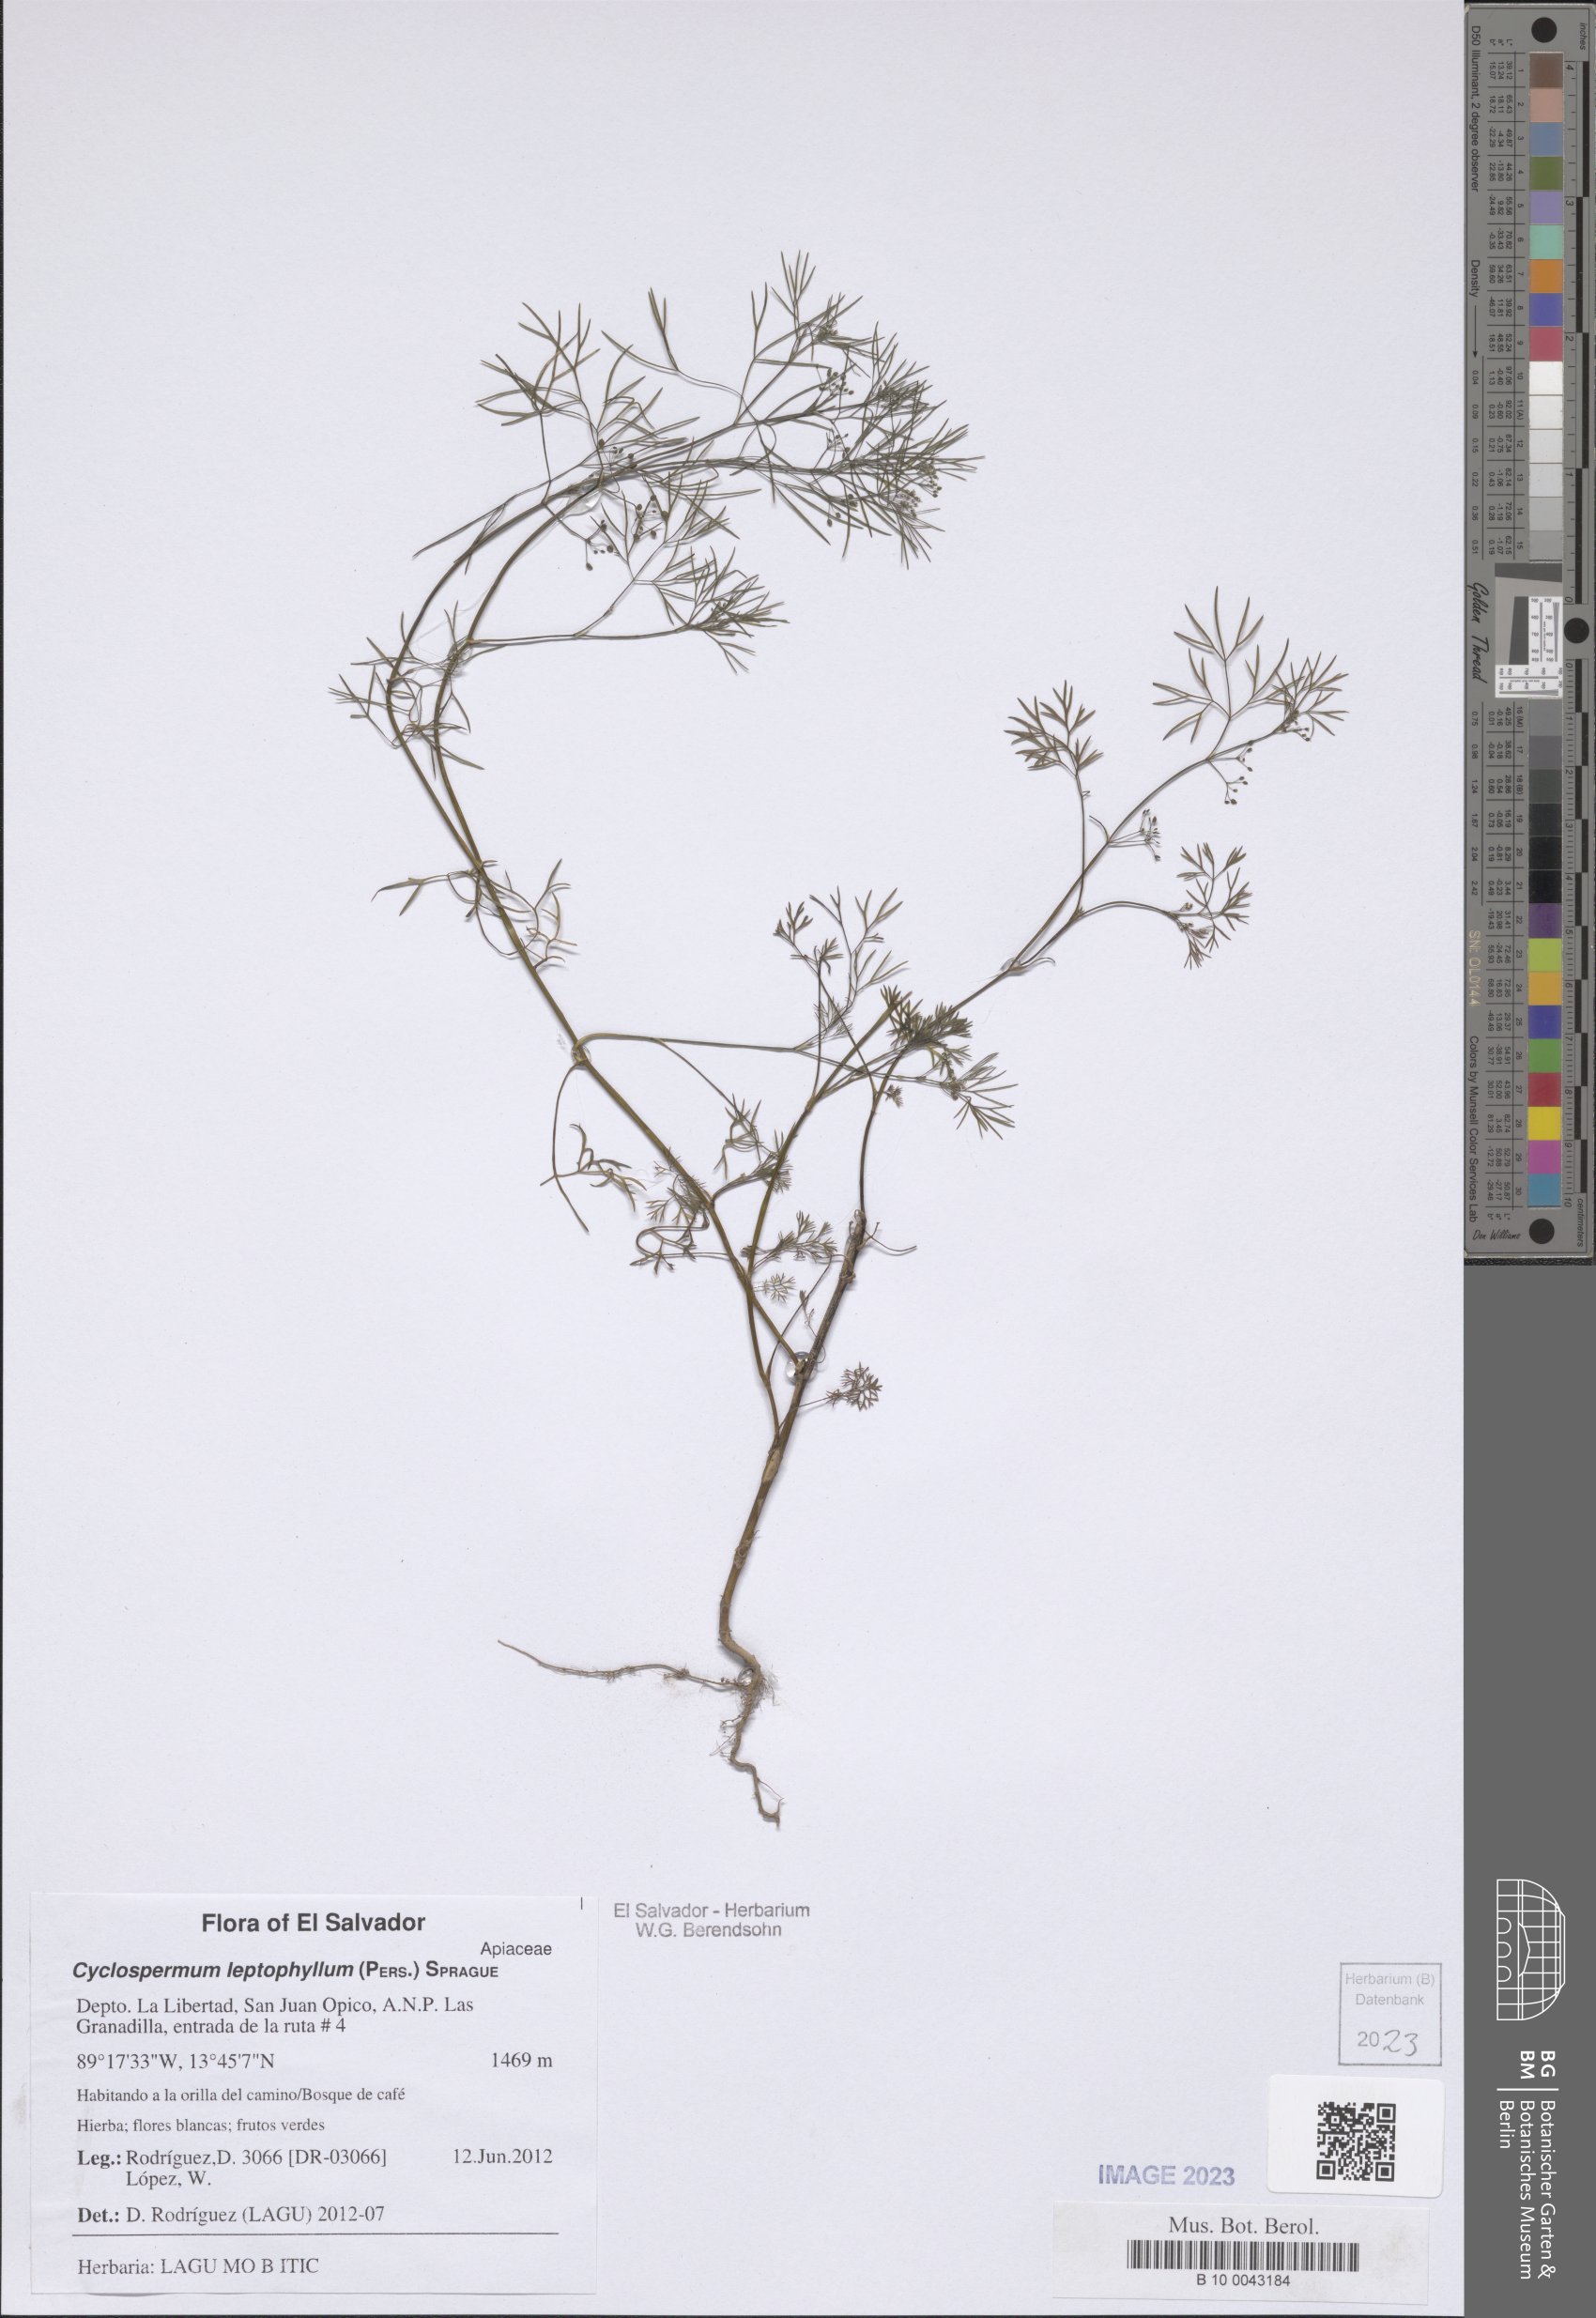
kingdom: Plantae
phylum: Tracheophyta
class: Magnoliopsida
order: Apiales
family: Apiaceae
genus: Cyclospermum
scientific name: Cyclospermum leptophyllum
